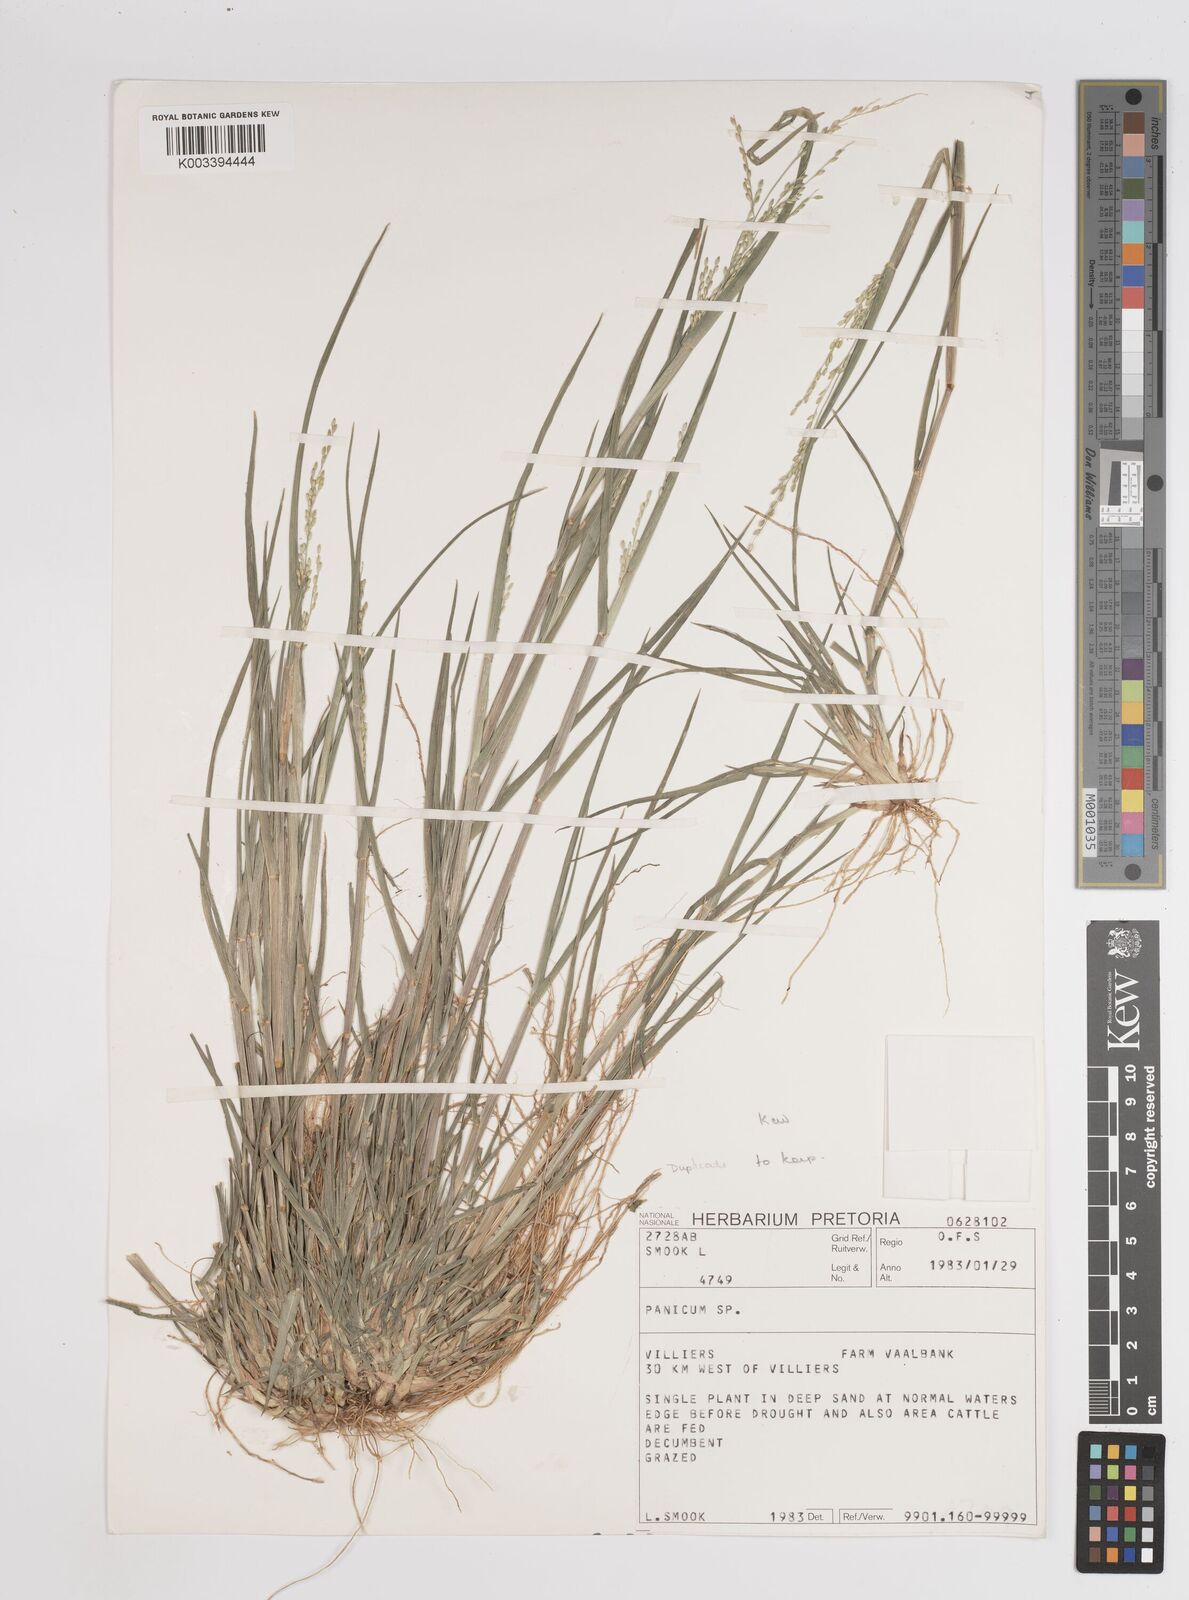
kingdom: Plantae
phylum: Tracheophyta
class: Liliopsida
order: Poales
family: Poaceae
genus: Panicum
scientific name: Panicum
